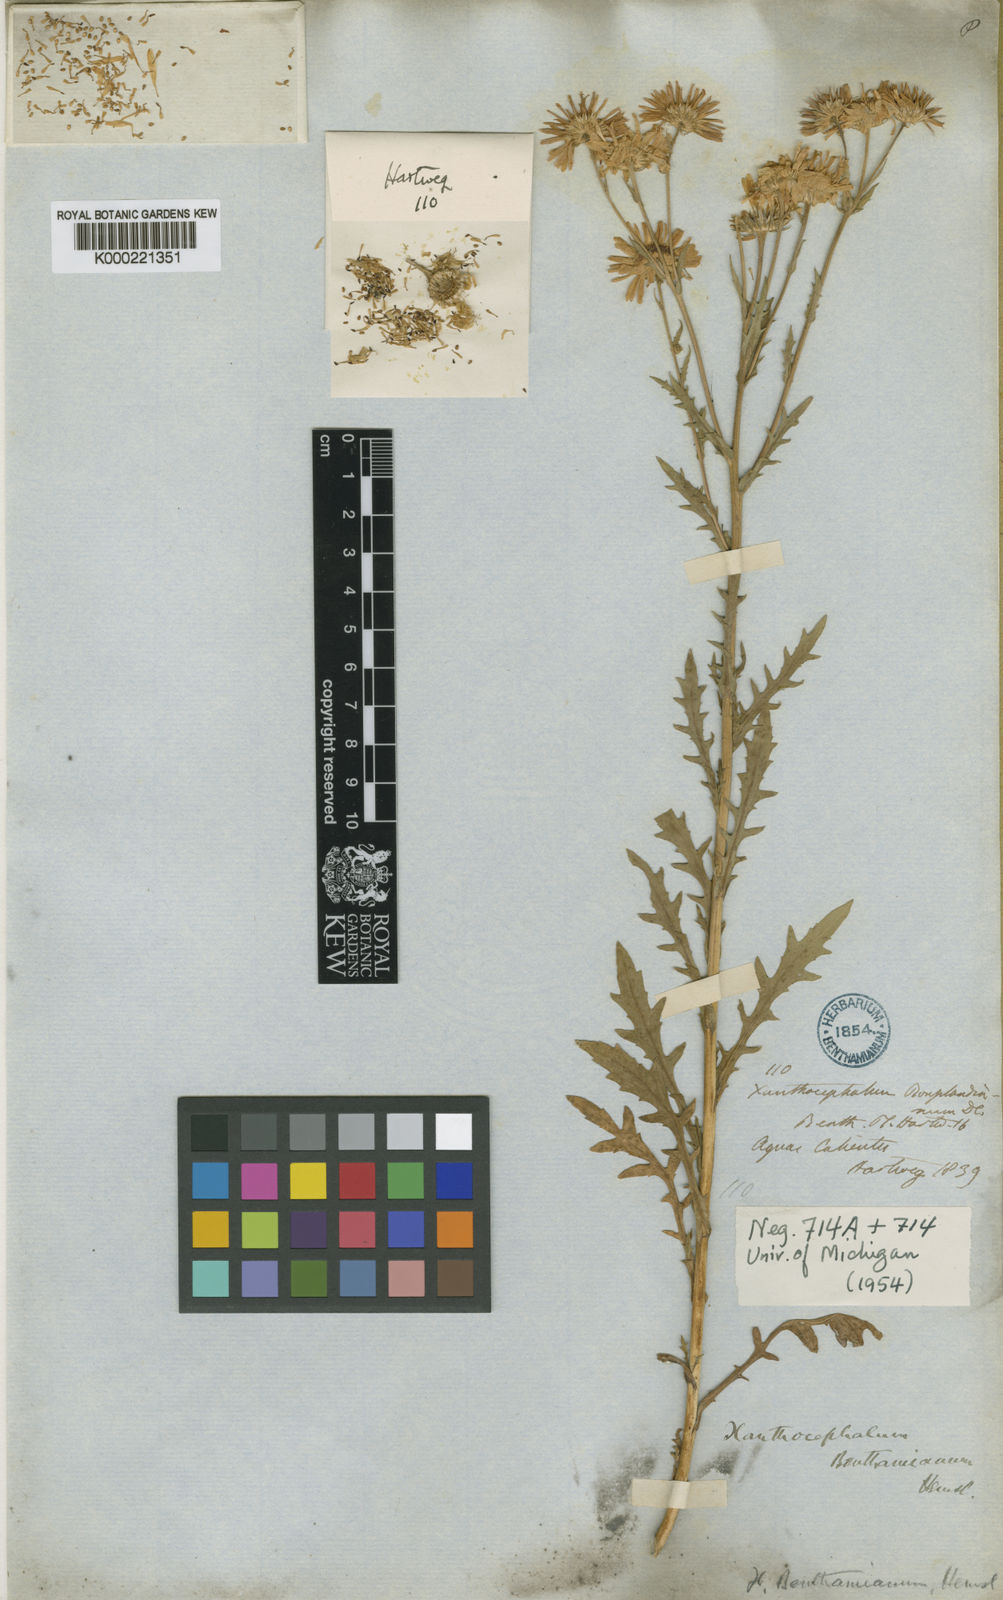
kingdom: Plantae
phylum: Tracheophyta
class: Magnoliopsida
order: Asterales
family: Asteraceae
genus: Xanthocephalum
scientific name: Xanthocephalum benthamianum
